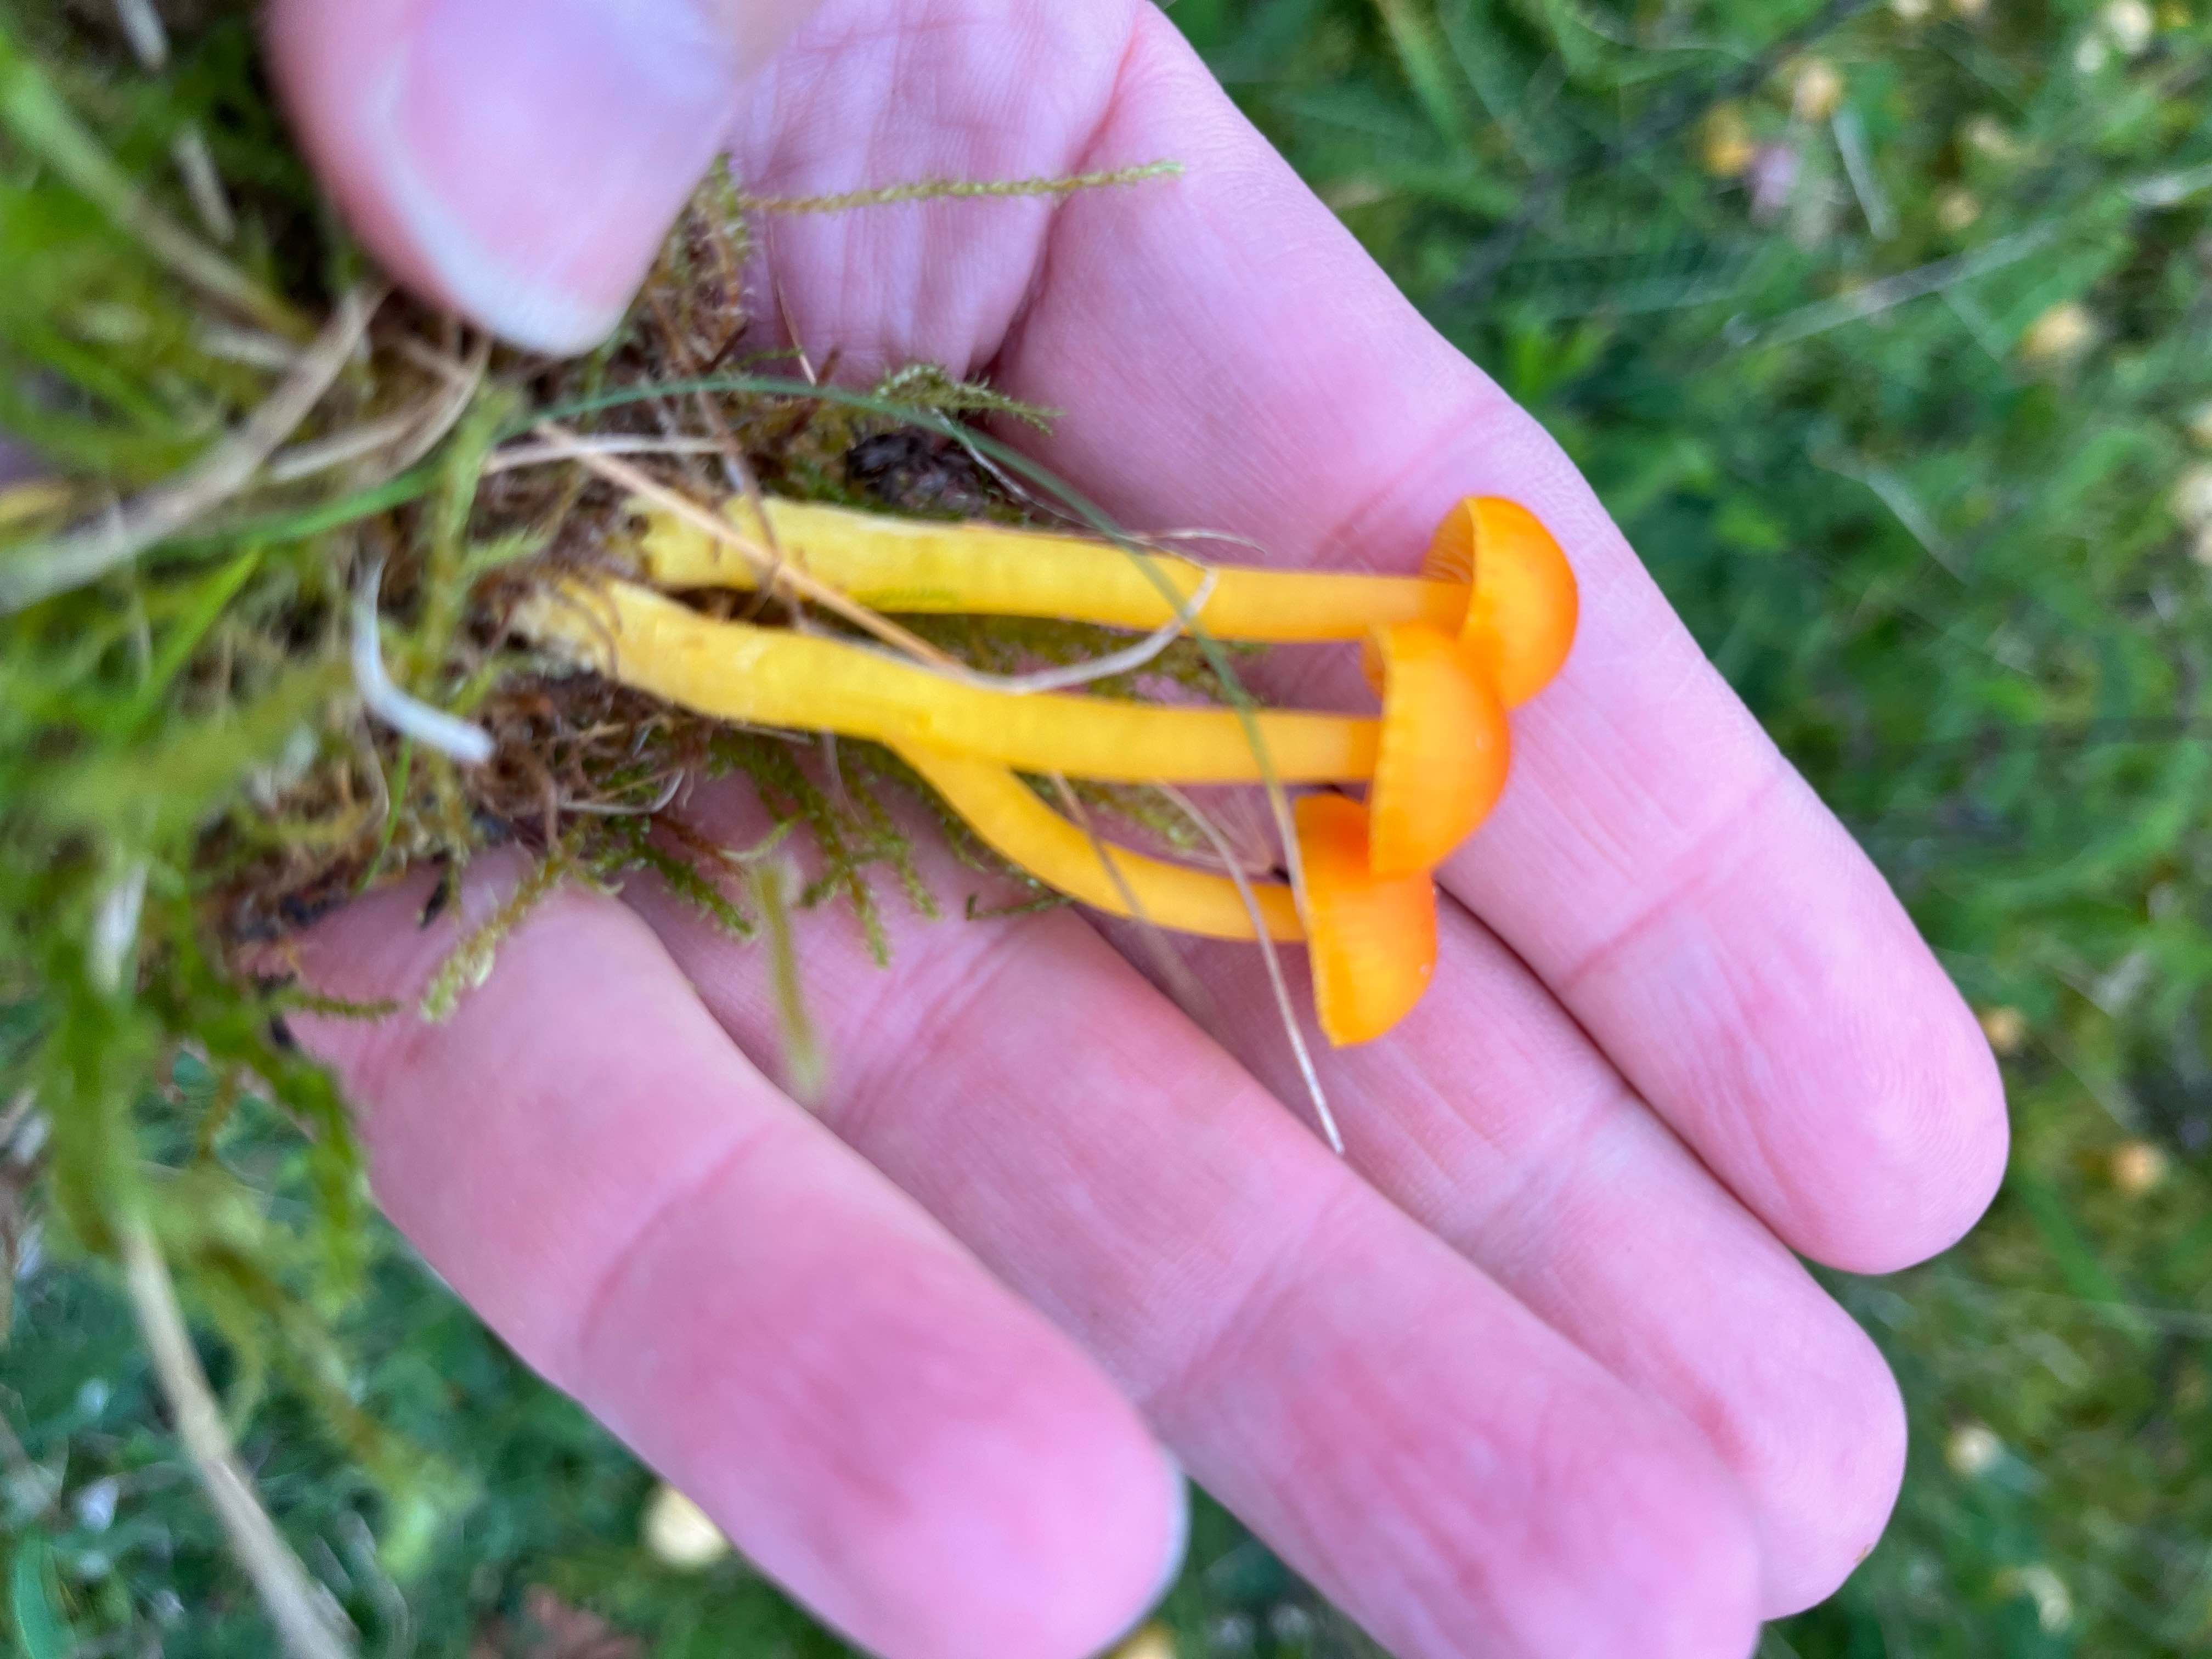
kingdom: Fungi
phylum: Basidiomycota
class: Agaricomycetes
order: Agaricales
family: Hygrophoraceae
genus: Hygrocybe
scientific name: Hygrocybe ceracea
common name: voksgul vokshat
